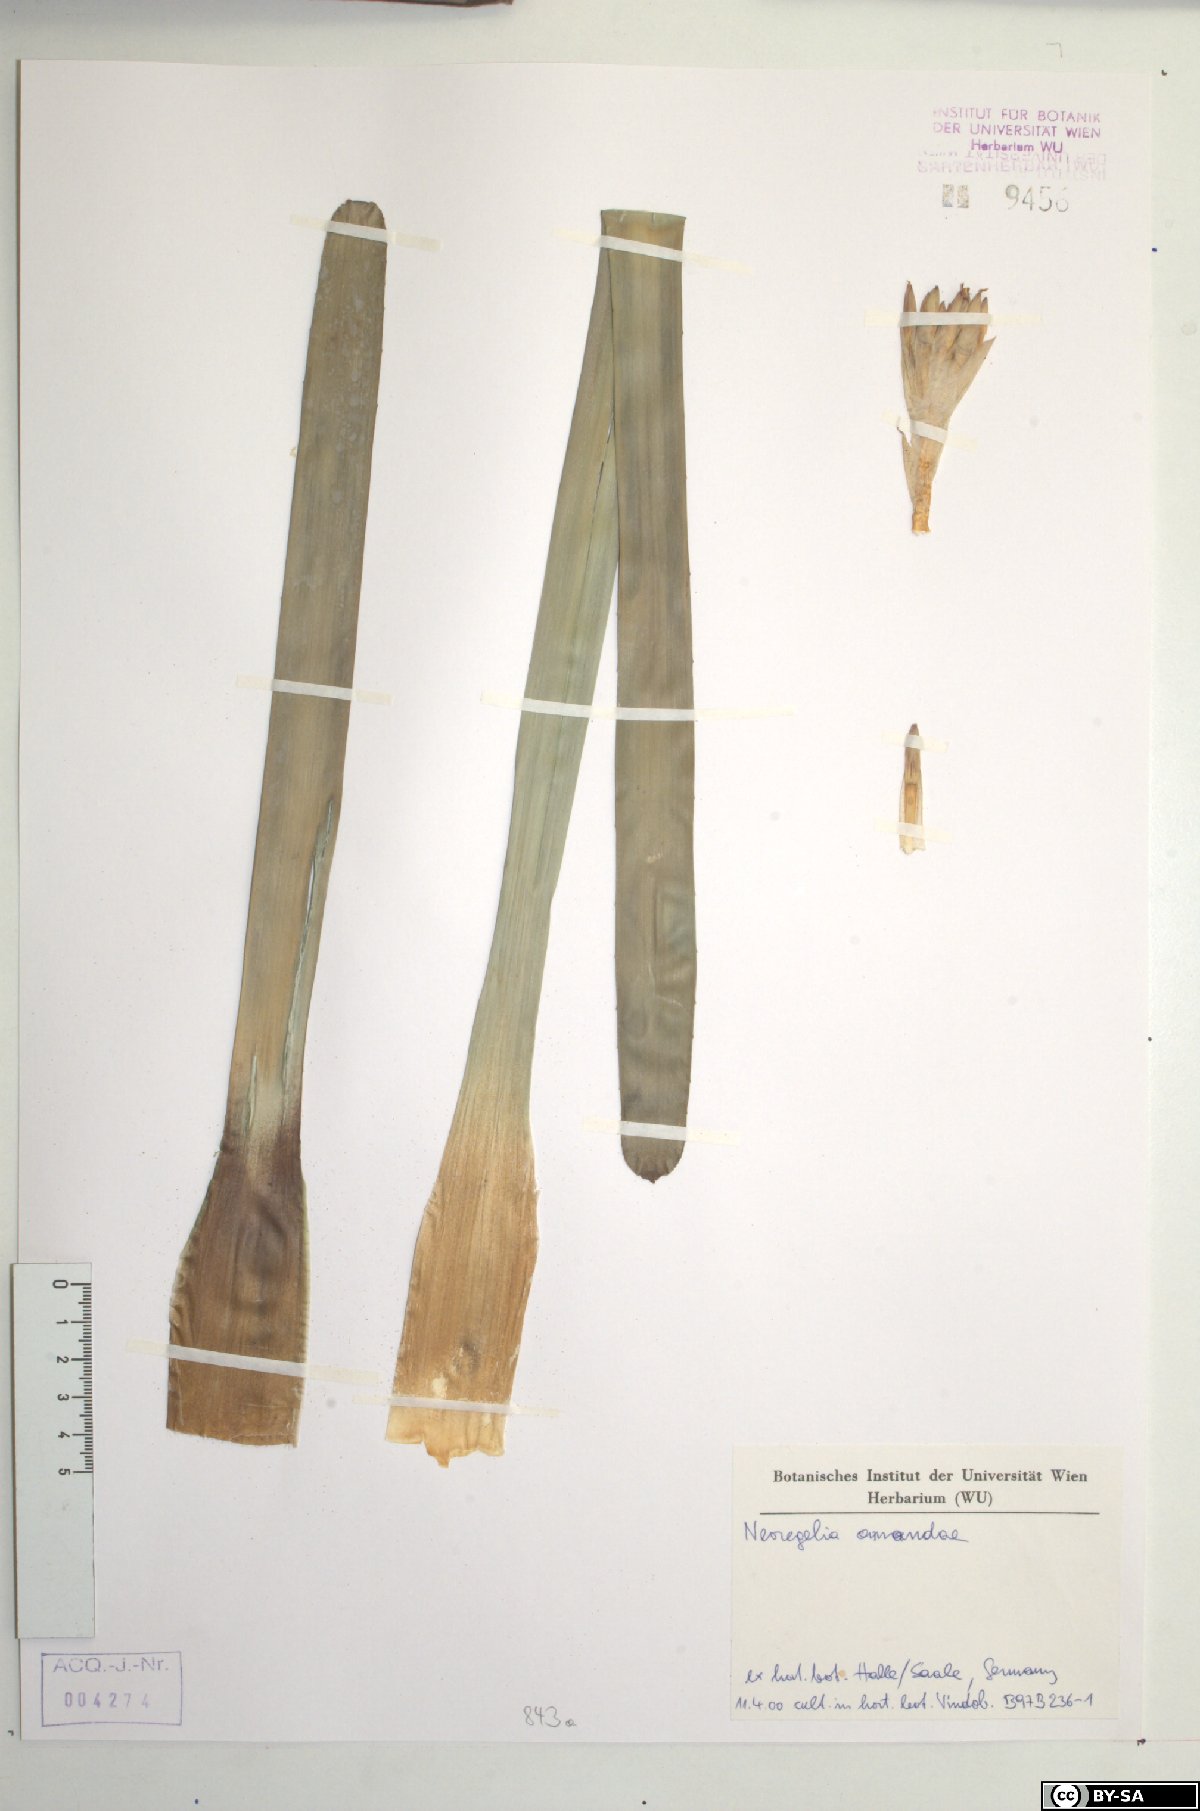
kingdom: Plantae
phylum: Tracheophyta
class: Liliopsida
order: Poales
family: Bromeliaceae
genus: Neoregelia
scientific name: Neoregelia amandae
